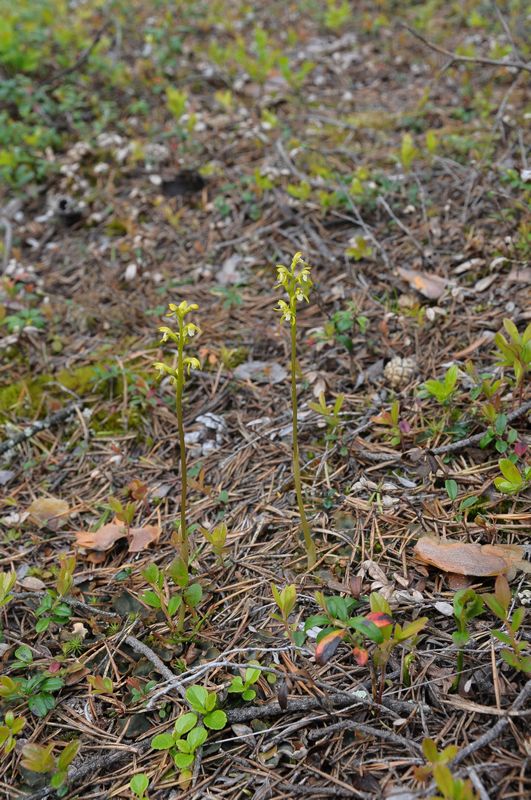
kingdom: Plantae
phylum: Tracheophyta
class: Liliopsida
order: Asparagales
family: Orchidaceae
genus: Corallorhiza
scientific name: Corallorhiza trifida
